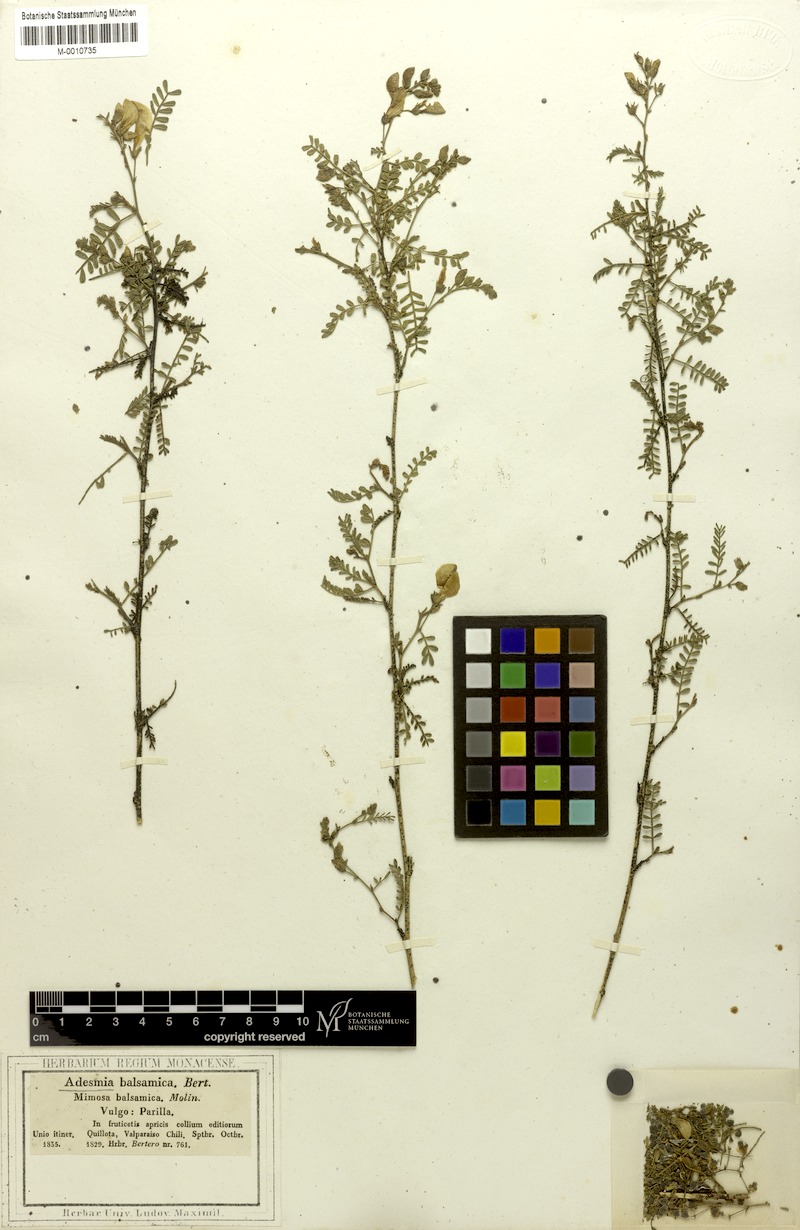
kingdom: Plantae
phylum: Tracheophyta
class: Magnoliopsida
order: Fabales
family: Fabaceae
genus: Adesmia
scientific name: Adesmia balsamica
